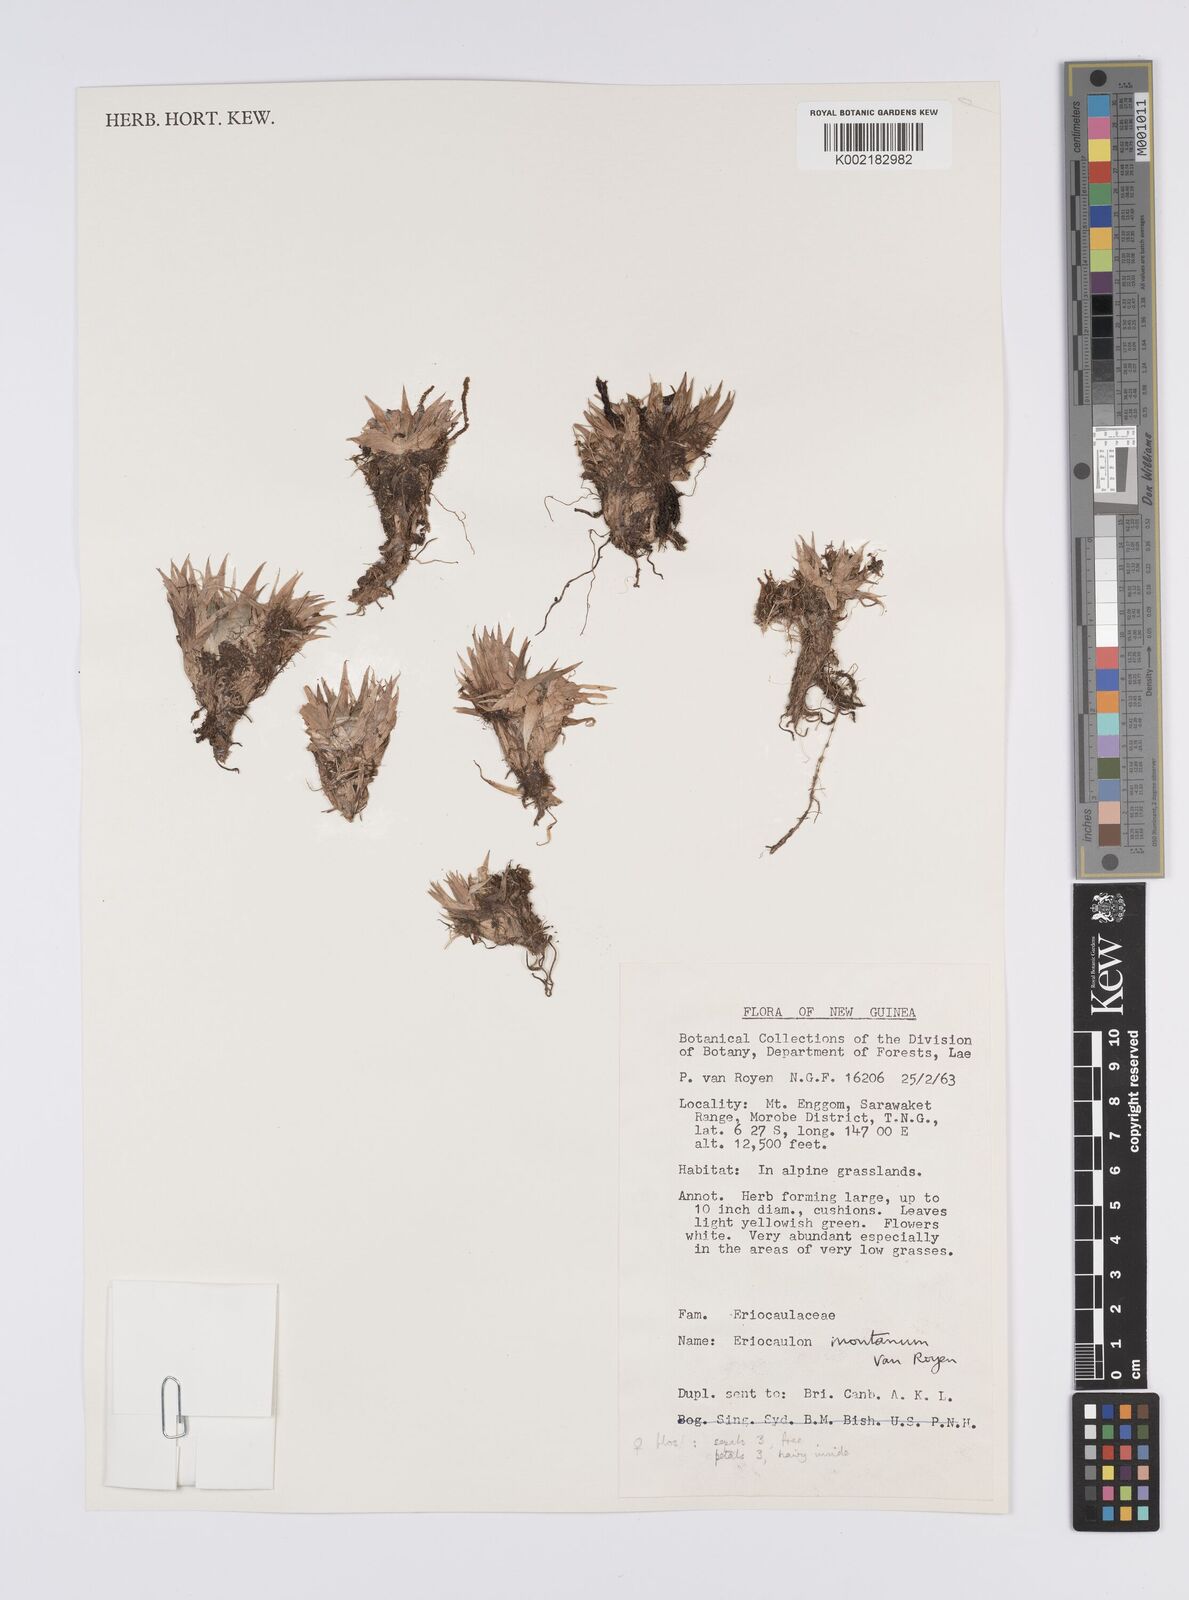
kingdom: Plantae
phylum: Tracheophyta
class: Liliopsida
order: Poales
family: Eriocaulaceae
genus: Eriocaulon
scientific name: Eriocaulon montanum
